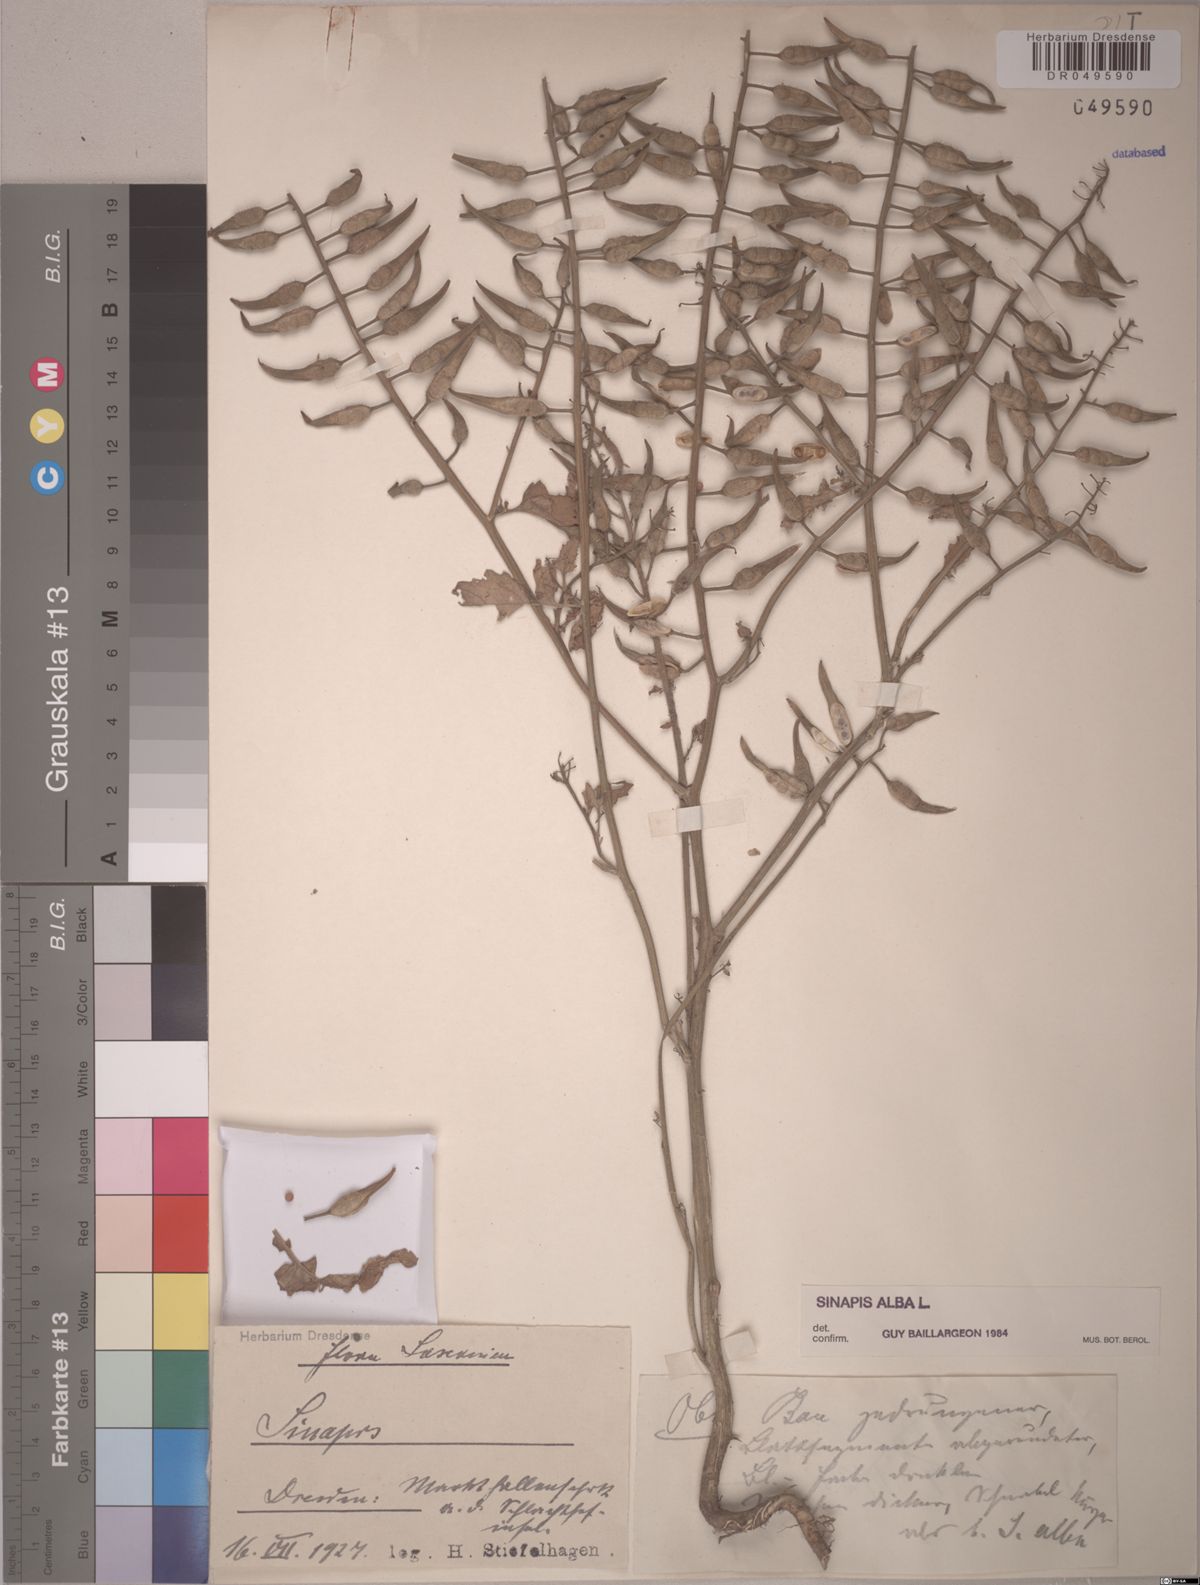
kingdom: Plantae
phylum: Tracheophyta
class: Magnoliopsida
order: Brassicales
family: Brassicaceae
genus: Sinapis
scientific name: Sinapis alba
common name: White mustard
